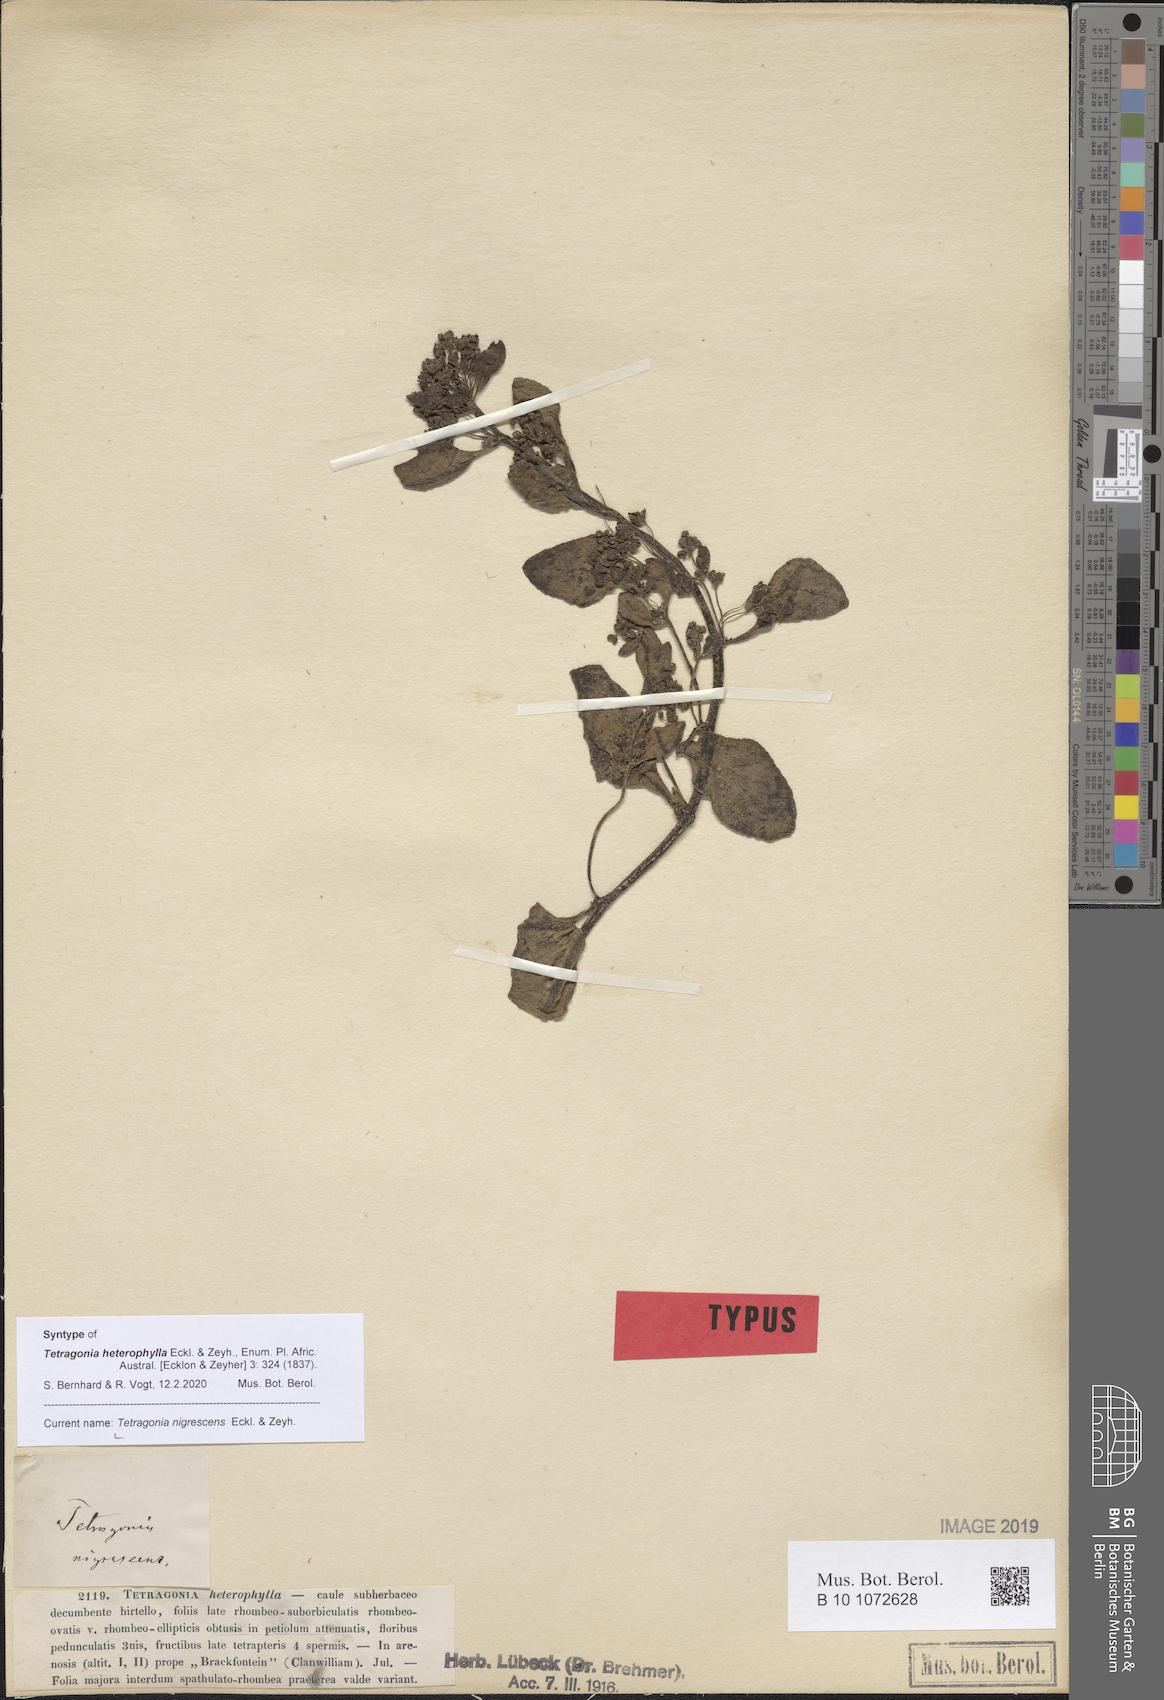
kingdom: Plantae
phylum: Tracheophyta
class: Magnoliopsida
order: Caryophyllales
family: Aizoaceae
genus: Tetragonia
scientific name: Tetragonia nigrescens
